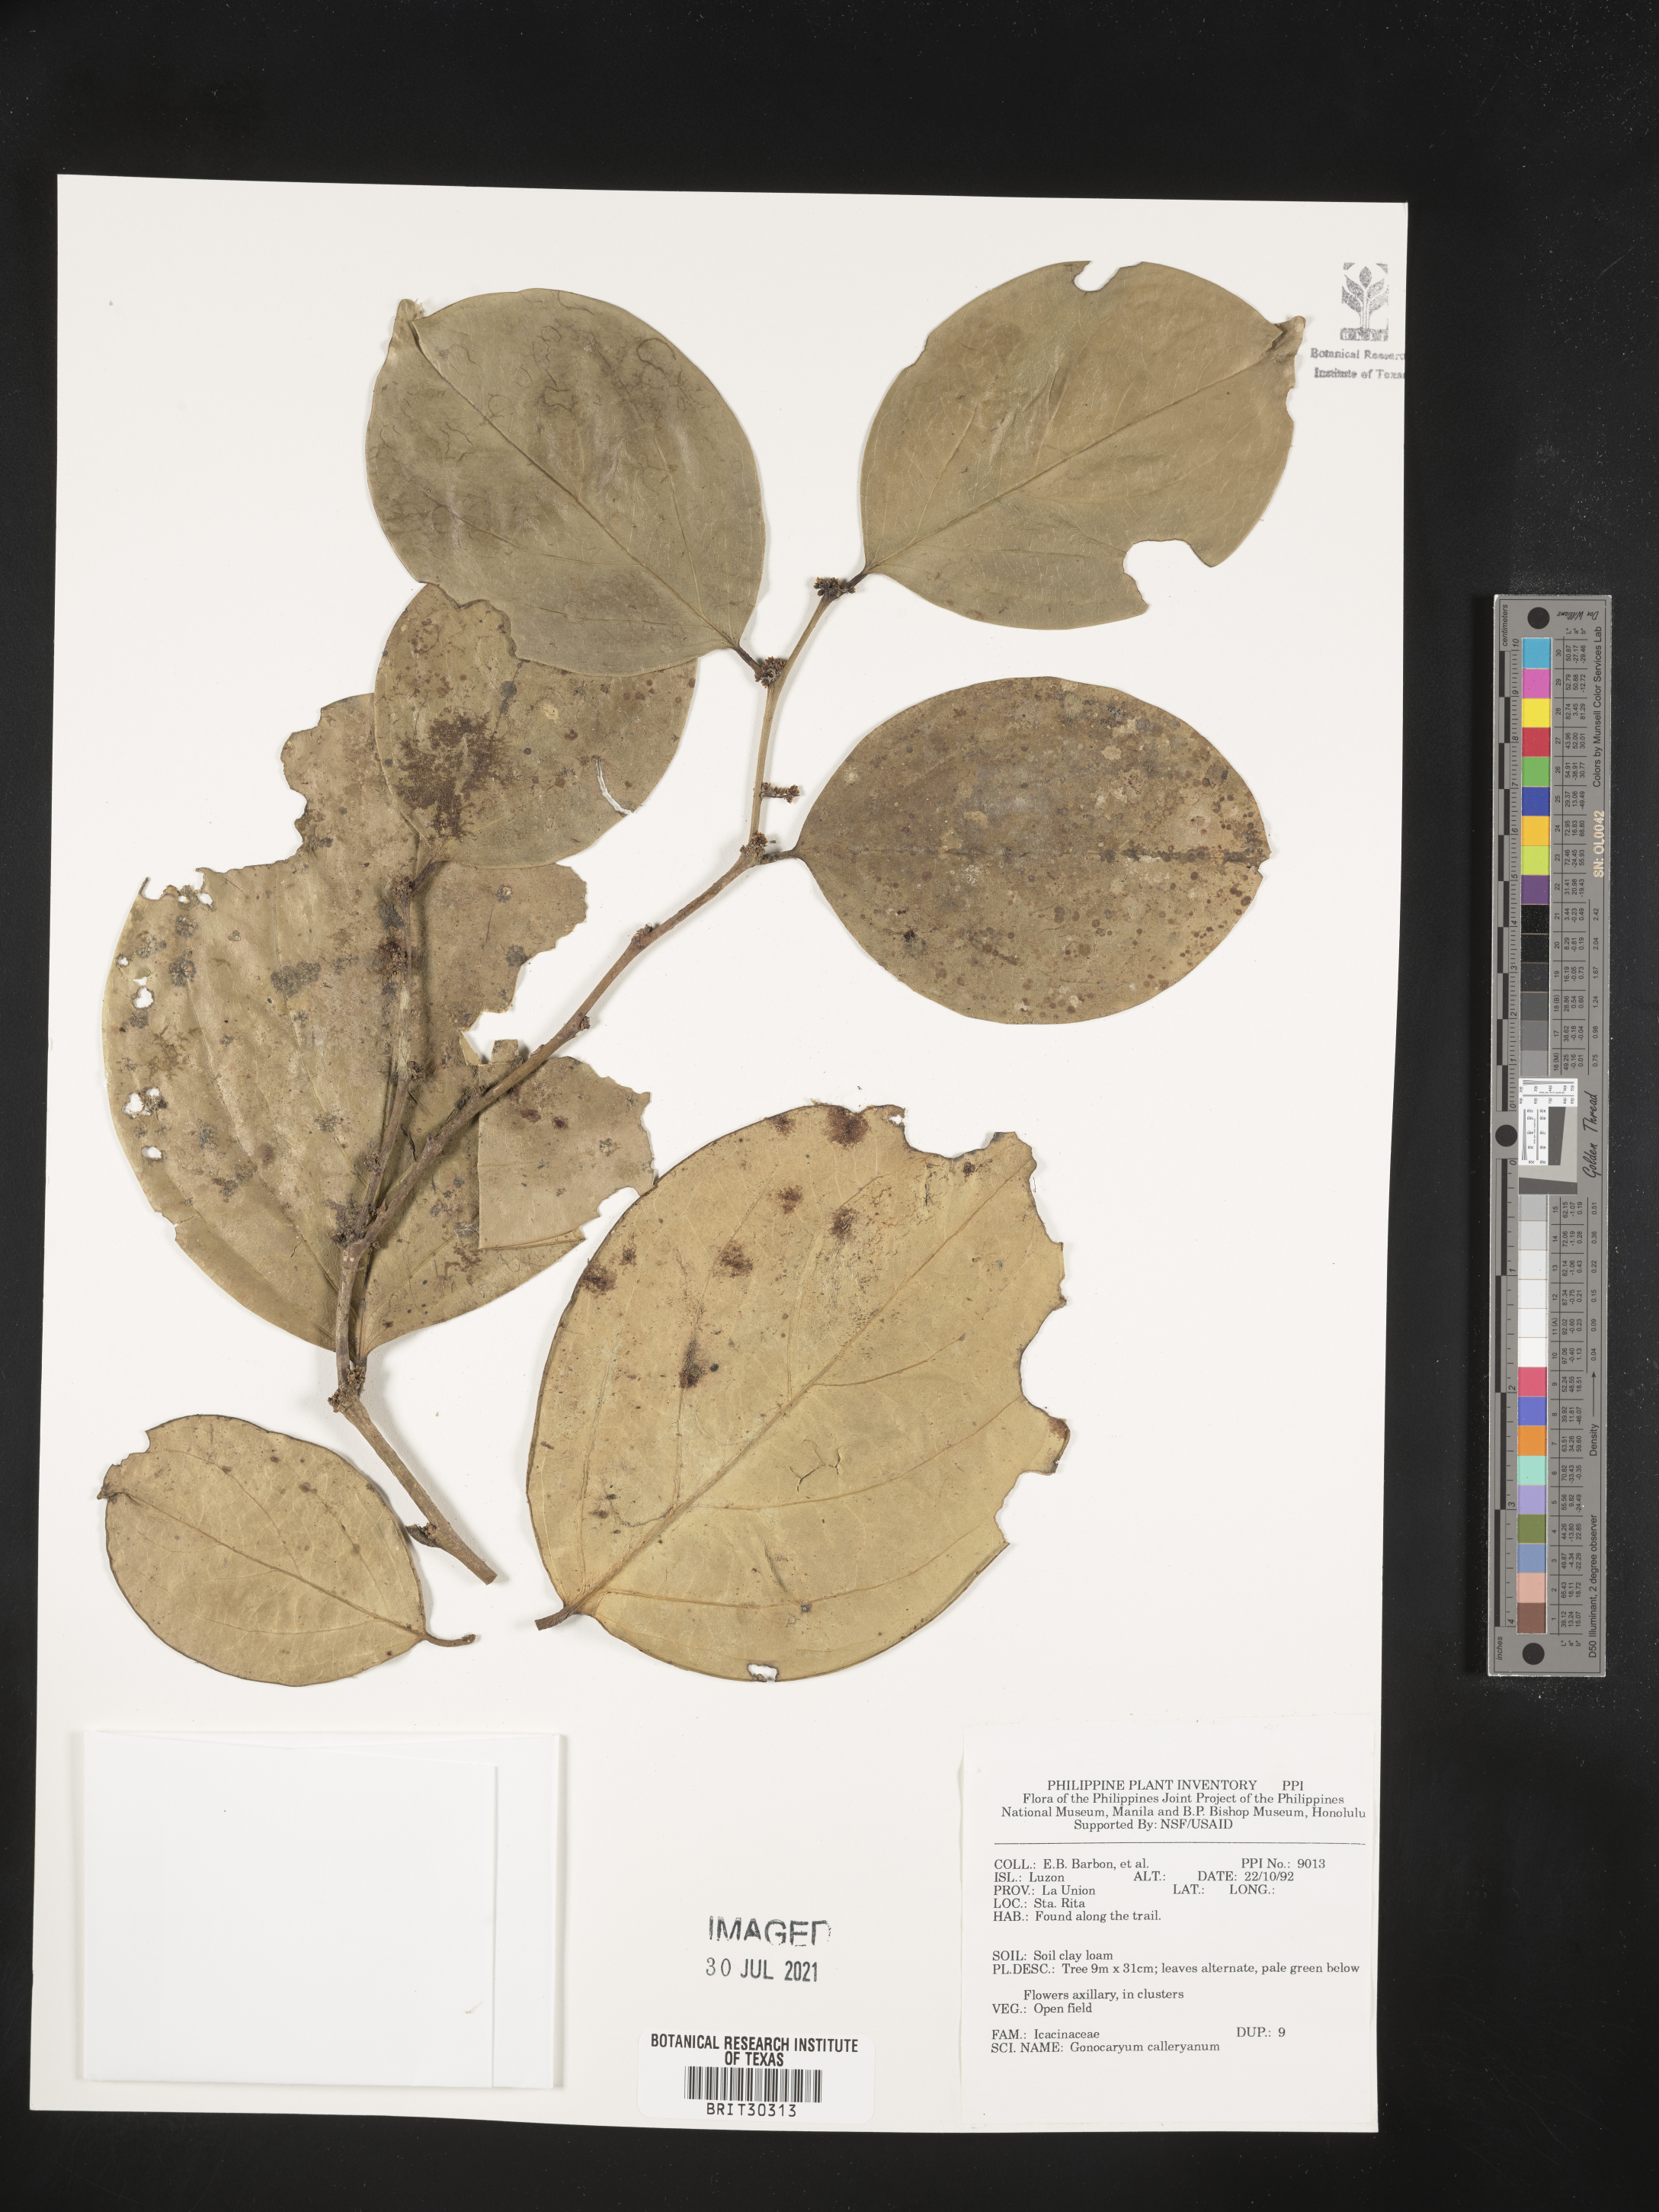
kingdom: Plantae
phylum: Tracheophyta
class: Magnoliopsida
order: Cardiopteridales
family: Cardiopteridaceae
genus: Gonocaryum
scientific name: Gonocaryum calleryanum
